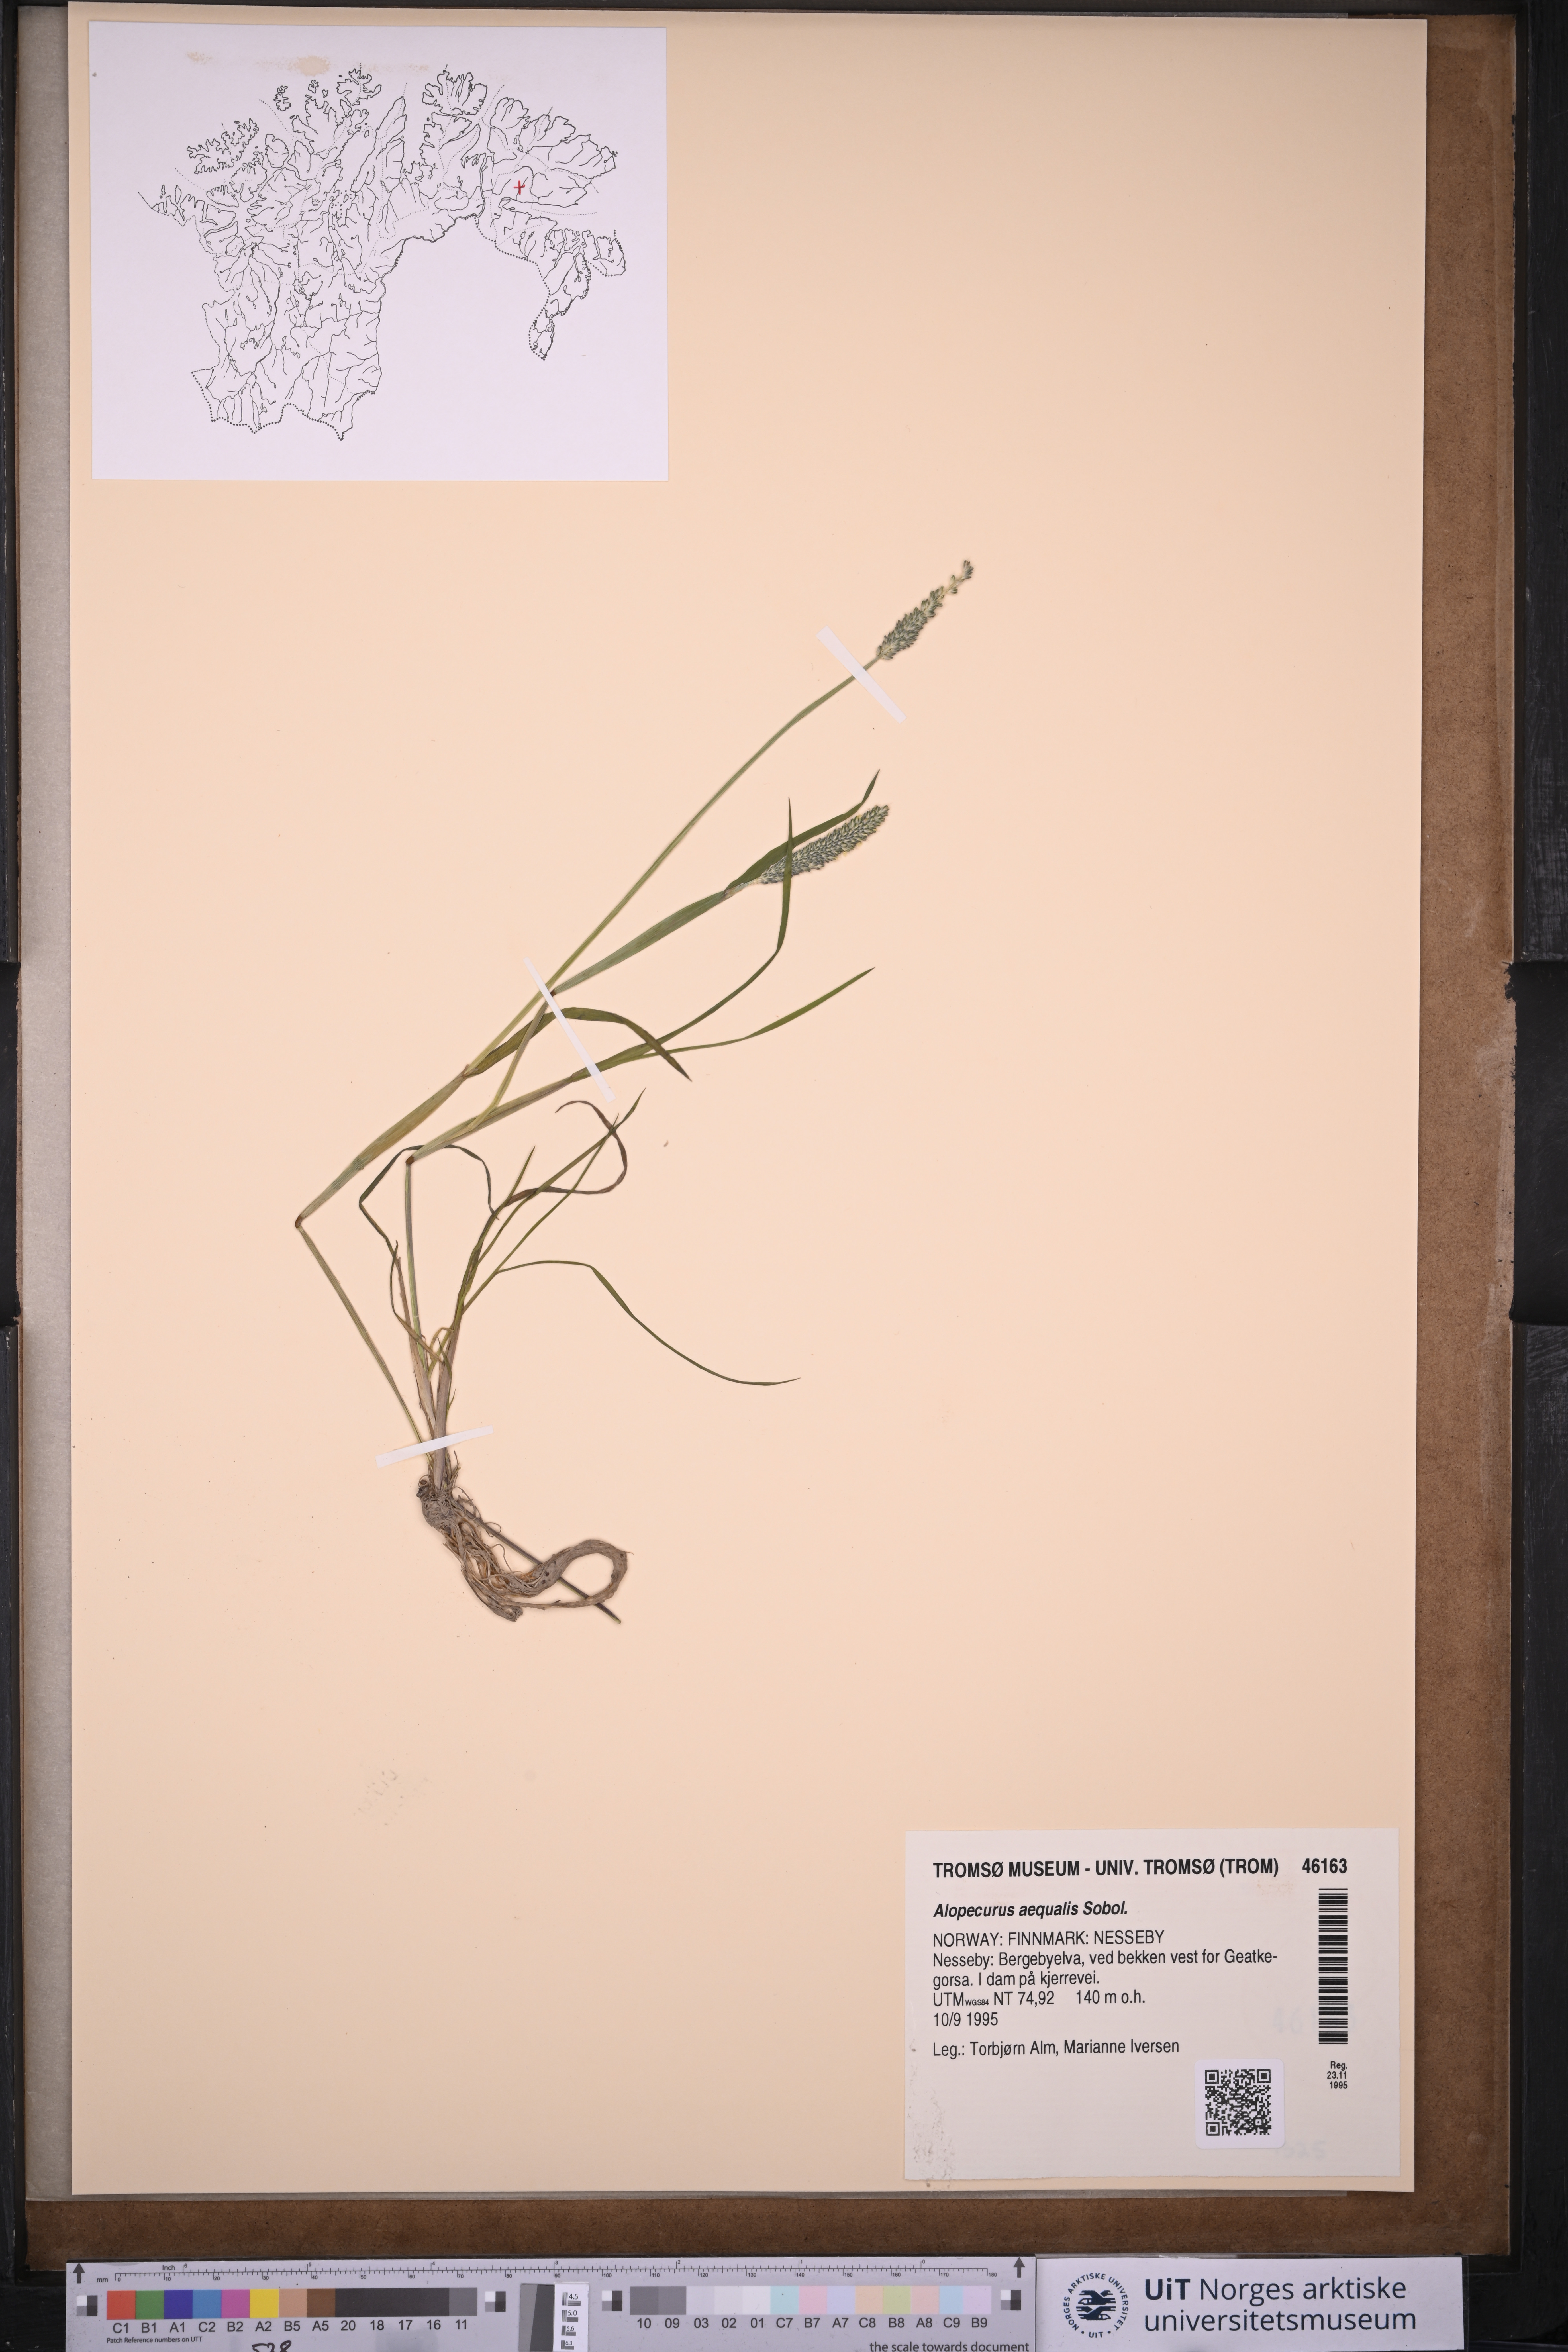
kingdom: Plantae
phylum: Tracheophyta
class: Liliopsida
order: Poales
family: Poaceae
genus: Alopecurus
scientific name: Alopecurus aequalis
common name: Orange foxtail
